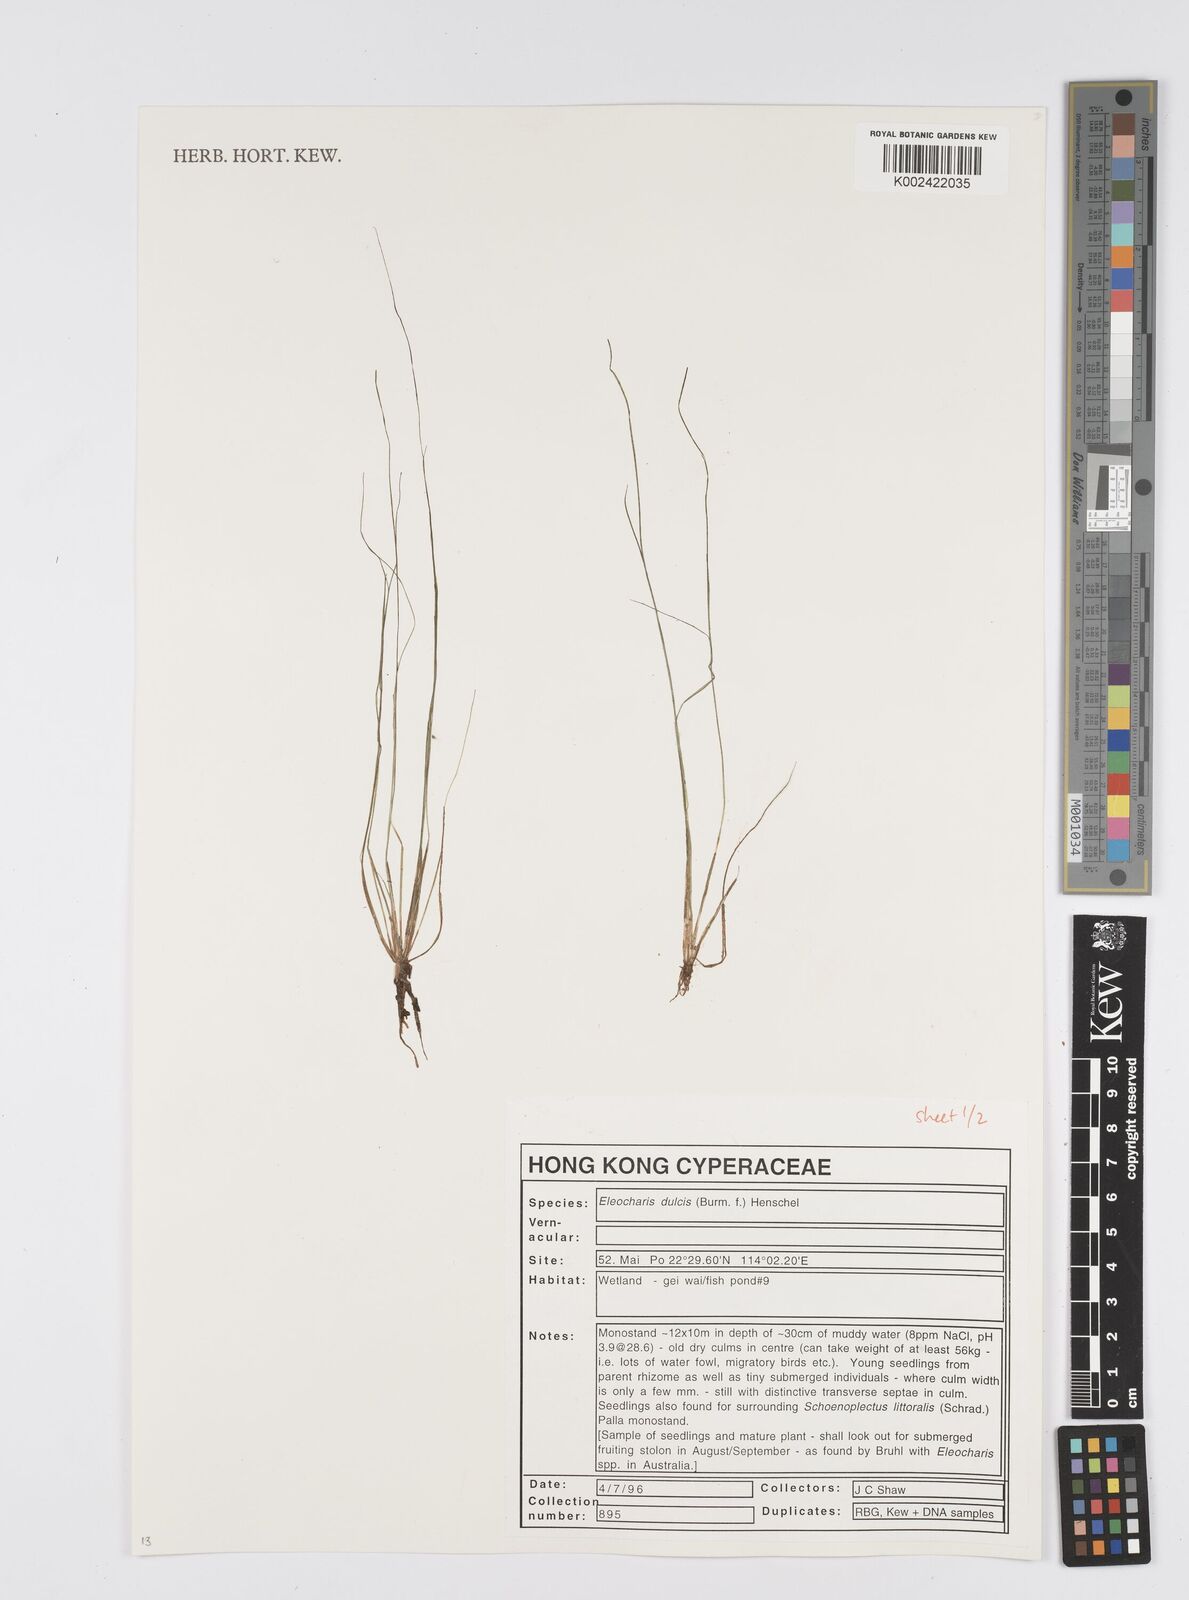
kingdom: Plantae
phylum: Tracheophyta
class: Liliopsida
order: Poales
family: Cyperaceae
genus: Eleocharis
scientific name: Eleocharis dulcis
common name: Chinese water chestnut
